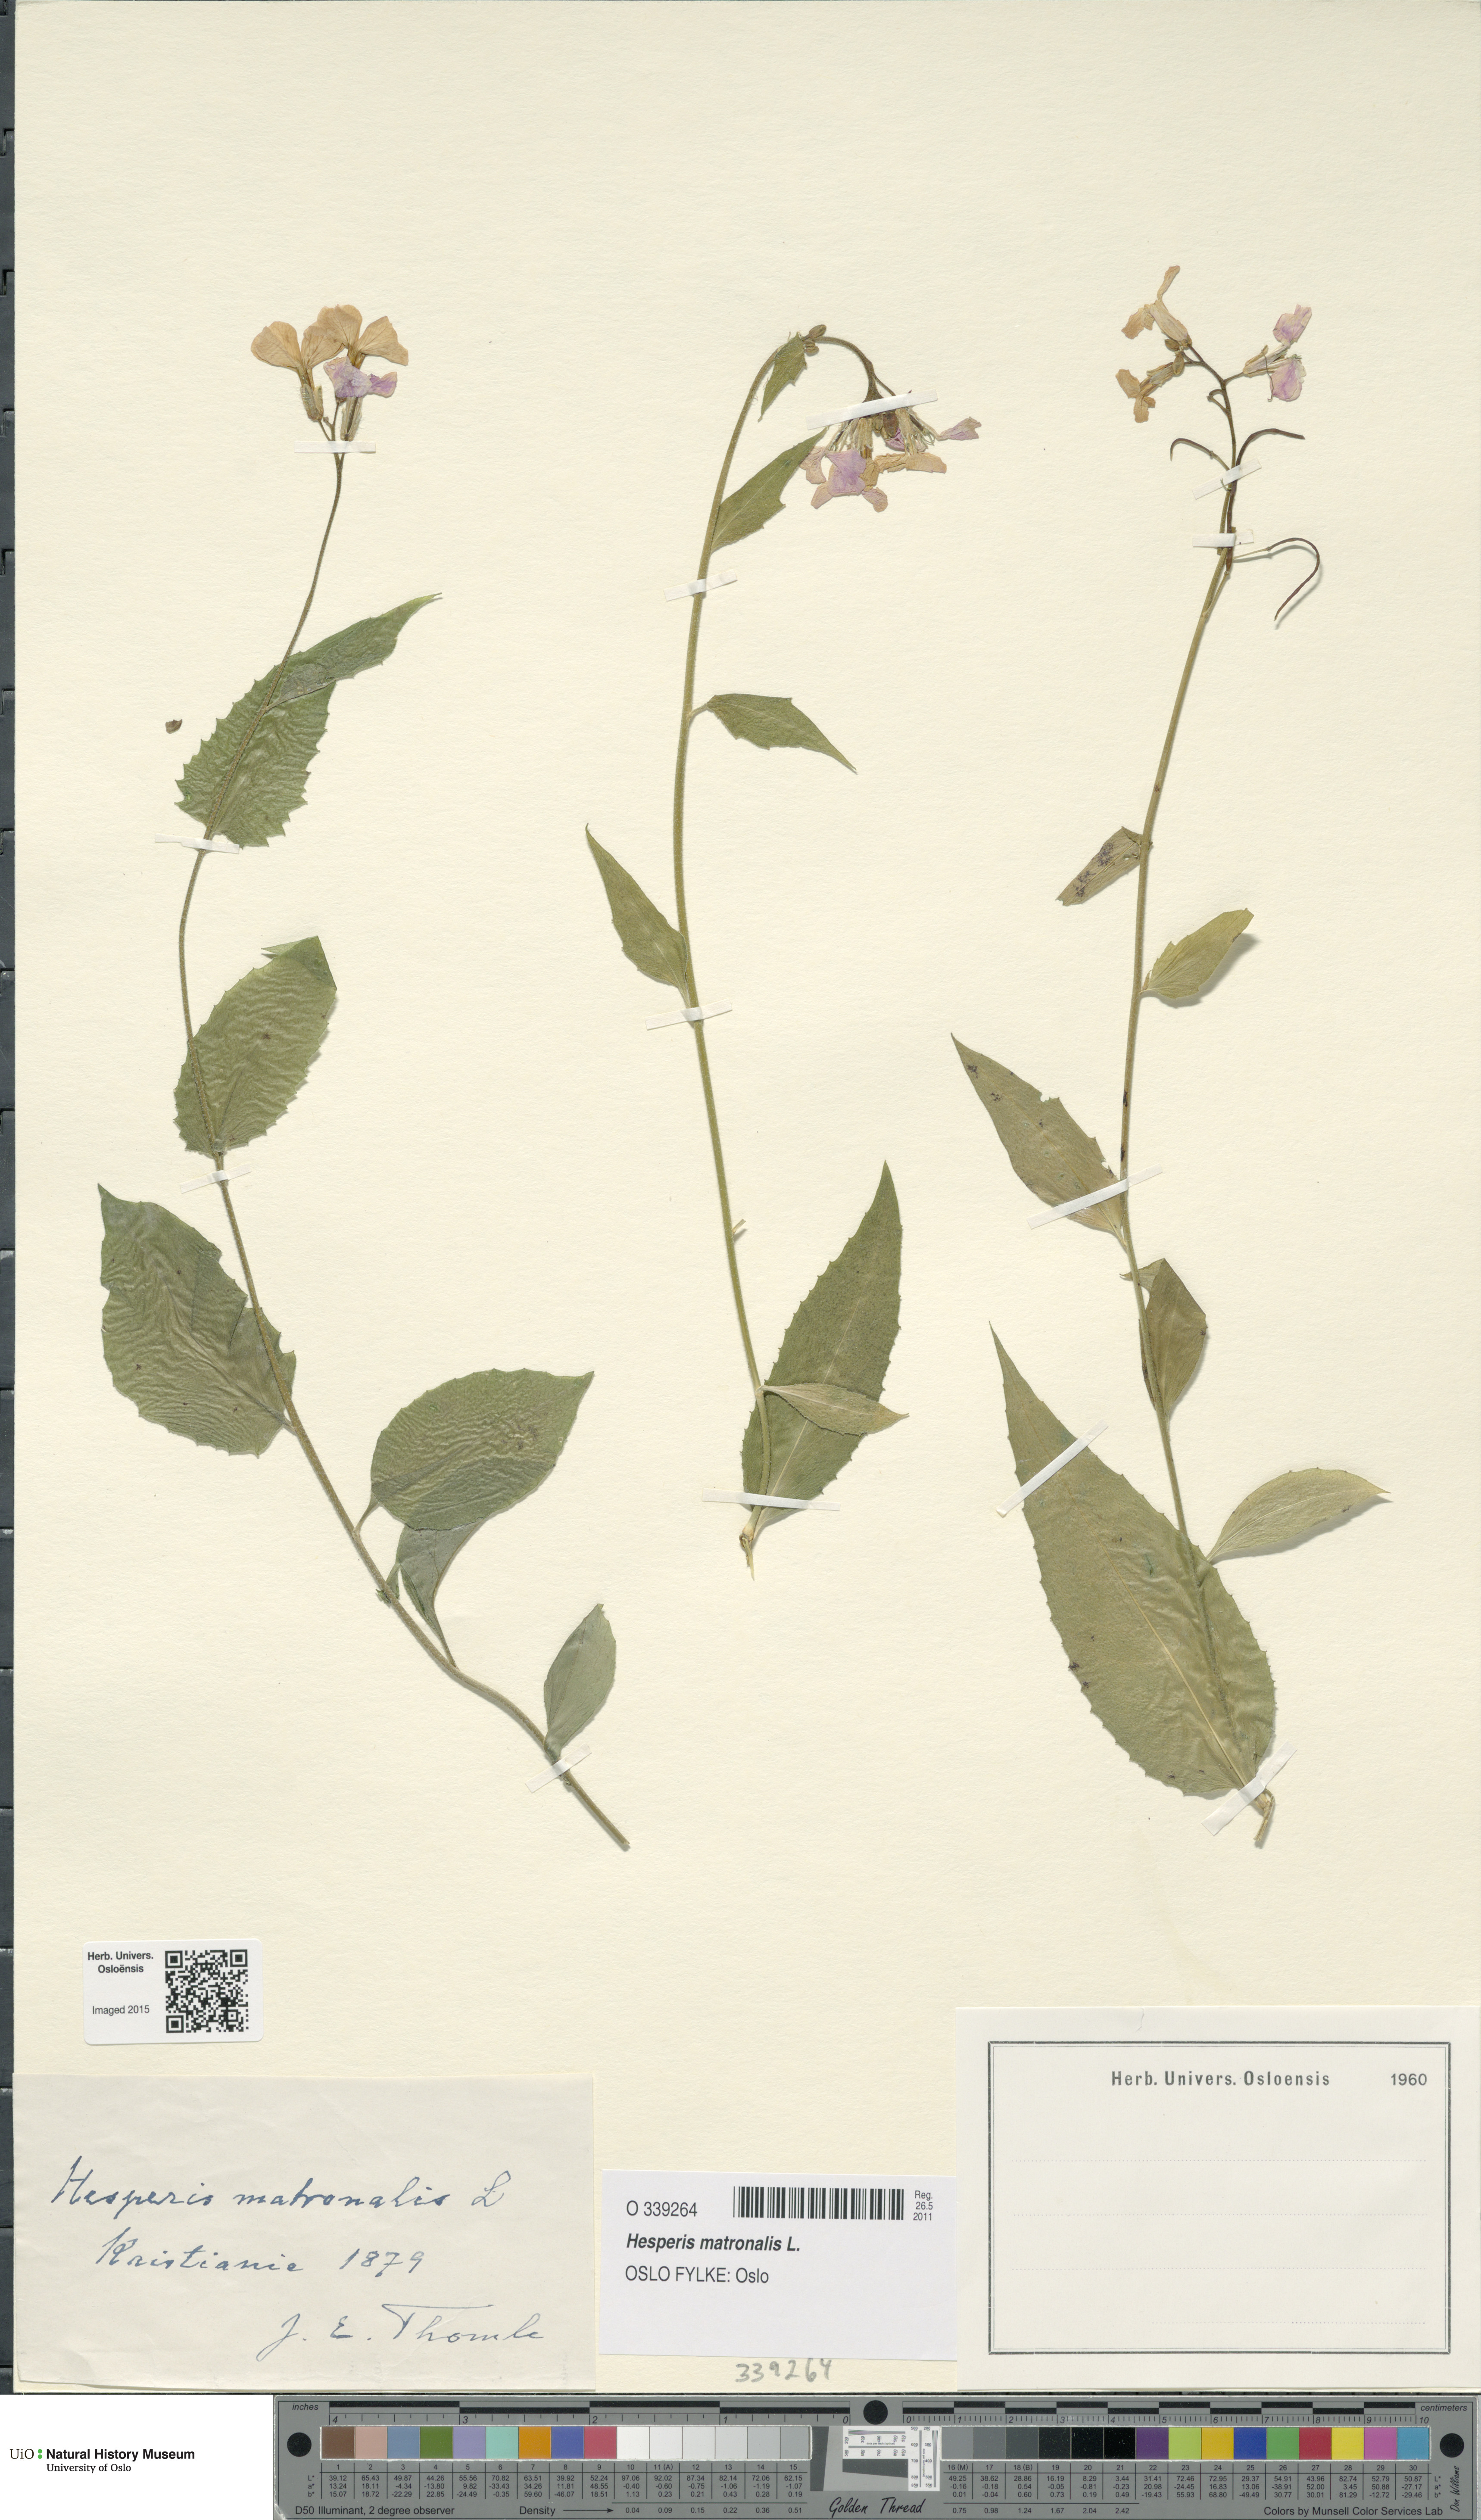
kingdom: Plantae
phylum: Tracheophyta
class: Magnoliopsida
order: Brassicales
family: Brassicaceae
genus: Hesperis
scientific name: Hesperis matronalis
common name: Dame's-violet
